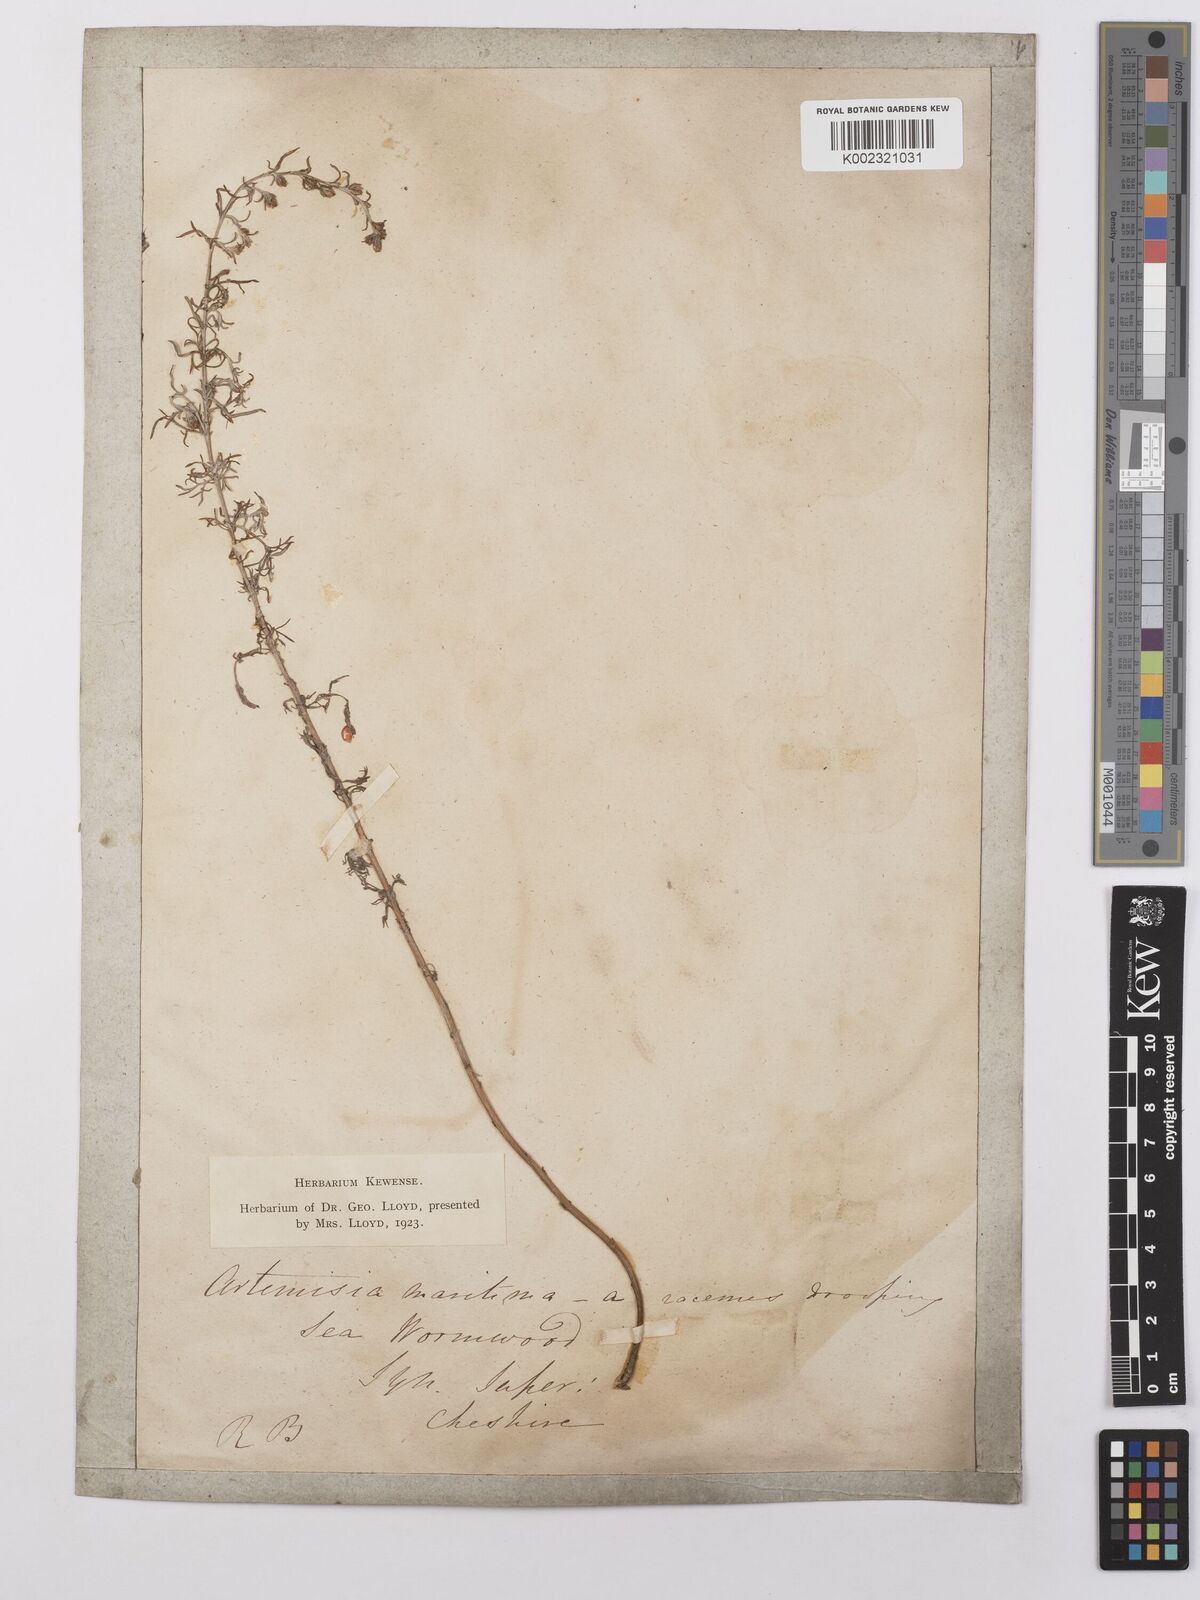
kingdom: Plantae
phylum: Tracheophyta
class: Magnoliopsida
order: Asterales
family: Asteraceae
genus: Artemisia
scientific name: Artemisia maritima
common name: Wormseed
